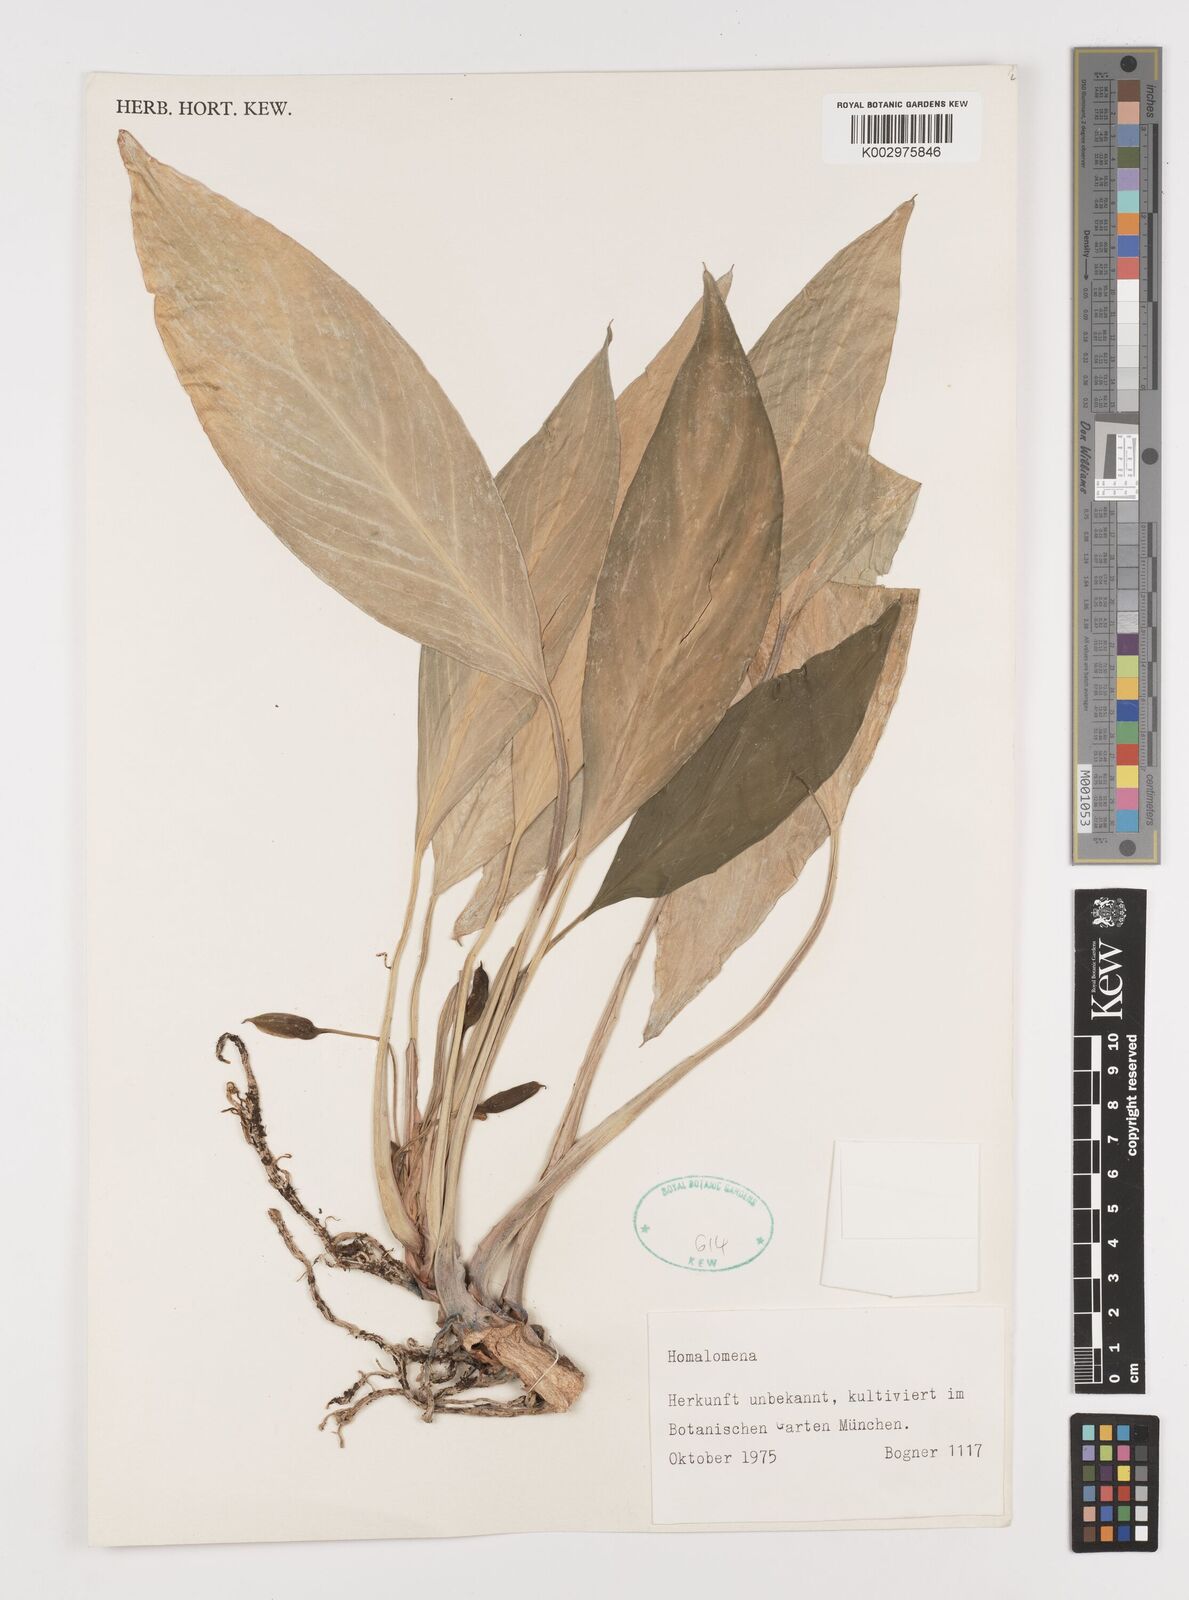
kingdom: Plantae
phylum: Tracheophyta
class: Liliopsida
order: Alismatales
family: Araceae
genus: Homalomena
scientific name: Homalomena
